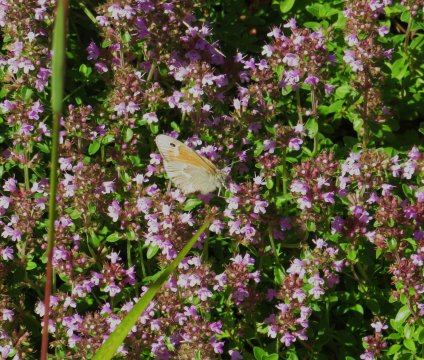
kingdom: Animalia
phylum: Arthropoda
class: Insecta
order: Lepidoptera
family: Nymphalidae
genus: Coenonympha
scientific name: Coenonympha tullia
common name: Large Heath
